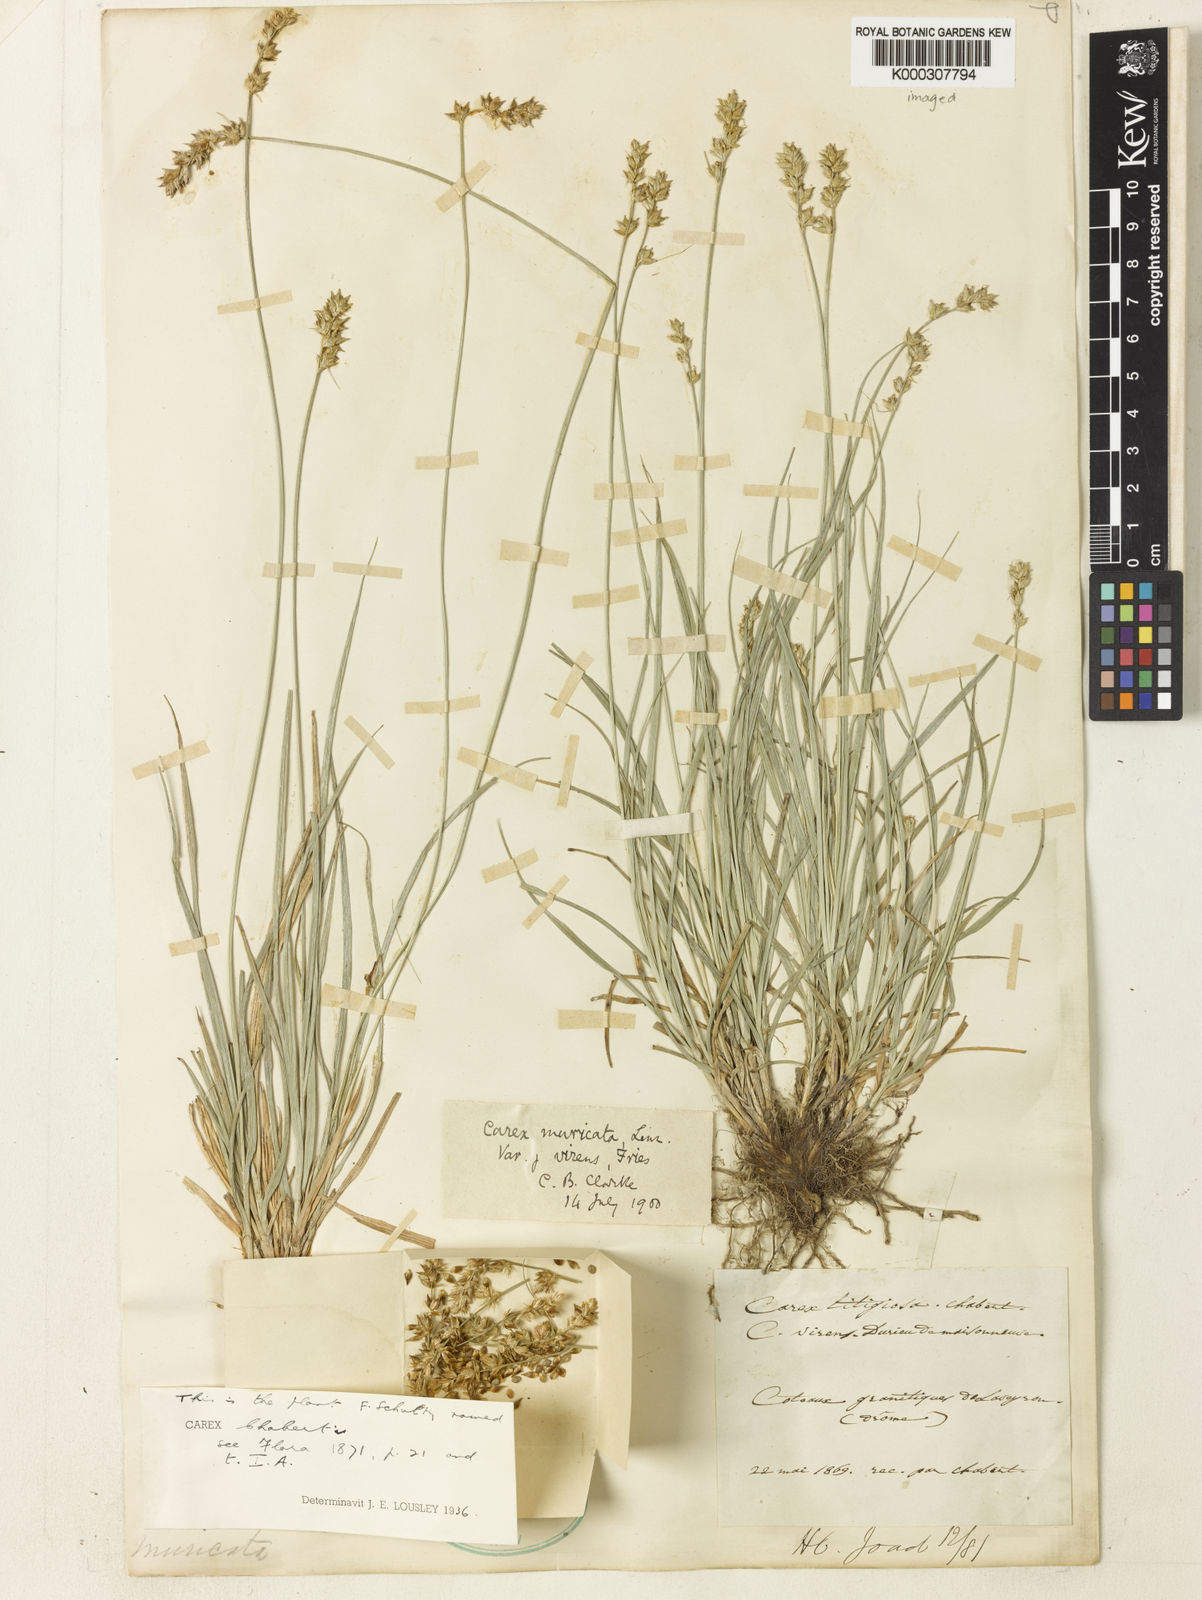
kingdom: Plantae
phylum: Tracheophyta
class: Liliopsida
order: Poales
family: Cyperaceae
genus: Carex
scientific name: Carex otrubae
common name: False fox-sedge
